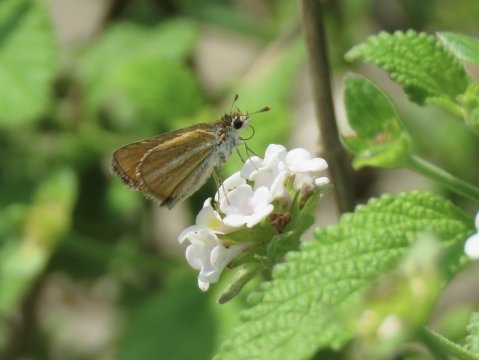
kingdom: Animalia
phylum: Arthropoda
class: Insecta
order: Lepidoptera
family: Hesperiidae
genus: Copaeodes
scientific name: Copaeodes minima
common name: Southern Skipperling
